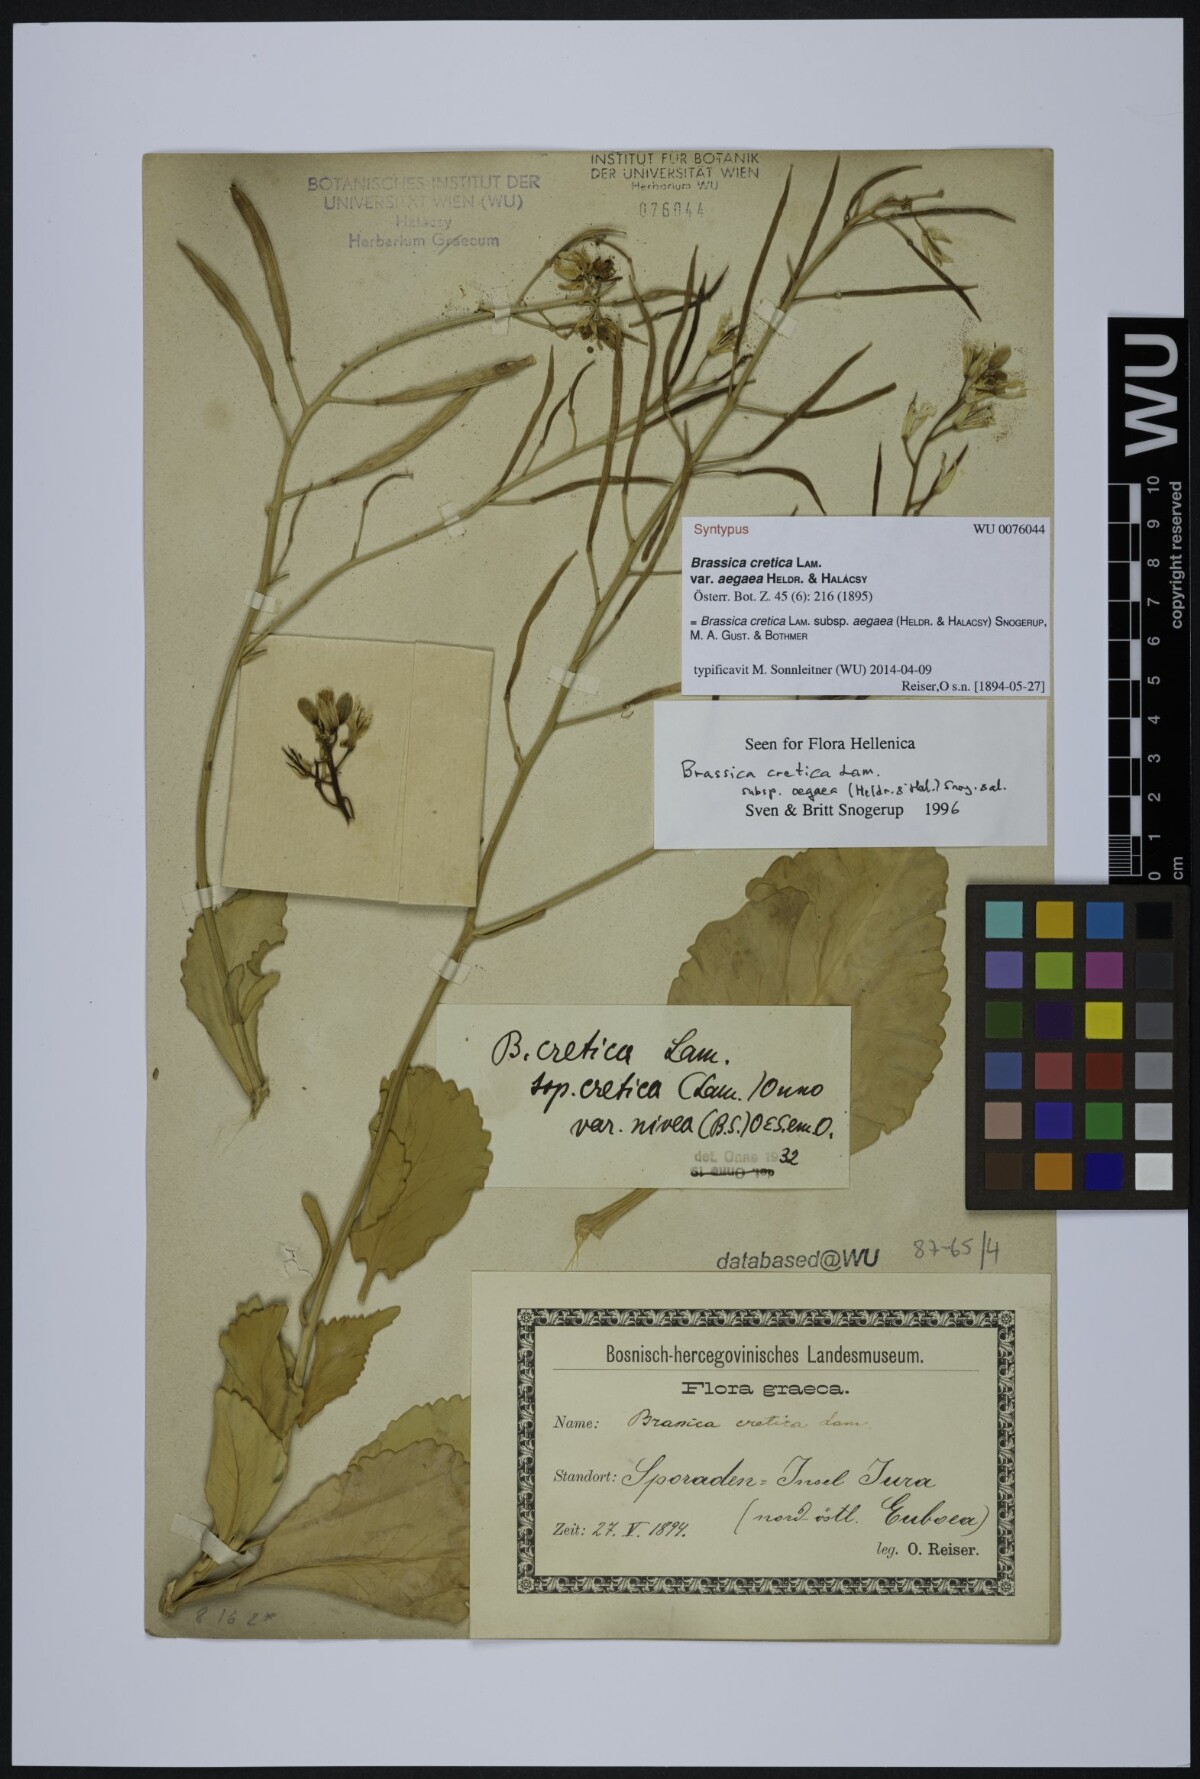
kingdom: Plantae
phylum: Tracheophyta
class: Magnoliopsida
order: Brassicales
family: Brassicaceae
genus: Brassica
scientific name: Brassica cretica
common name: Mustard
